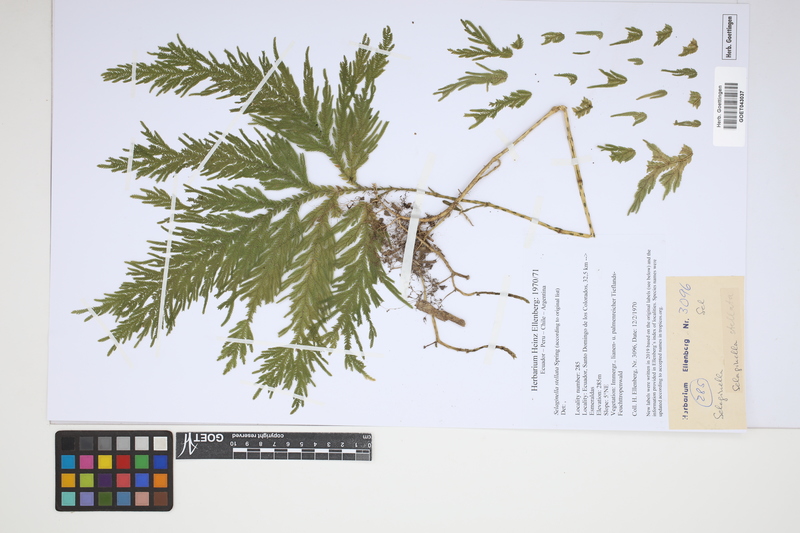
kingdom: Plantae
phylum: Tracheophyta
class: Lycopodiopsida
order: Selaginellales
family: Selaginellaceae
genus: Selaginella
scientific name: Selaginella stellata
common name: Starry spikemoss
